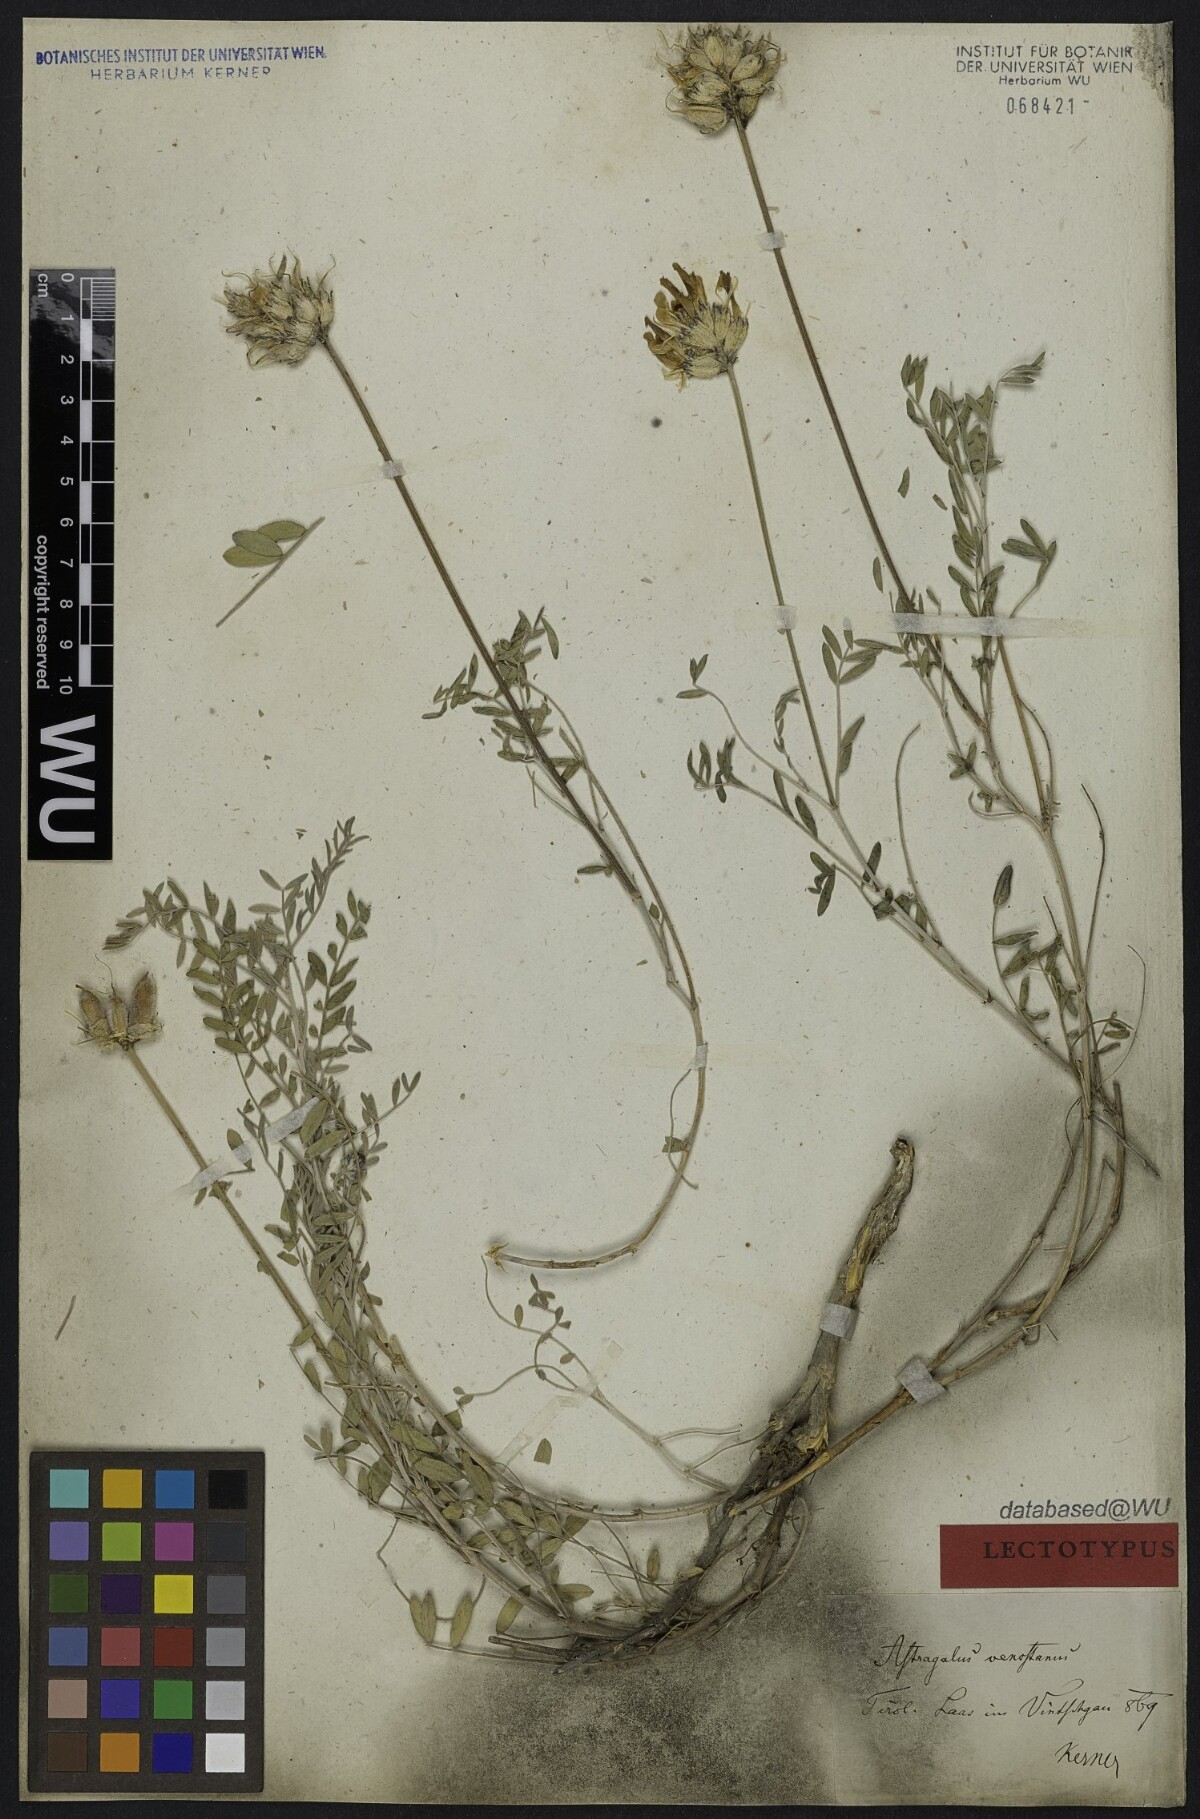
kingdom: Plantae
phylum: Tracheophyta
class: Magnoliopsida
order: Fabales
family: Fabaceae
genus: Astragalus
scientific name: Astragalus vesicarius
